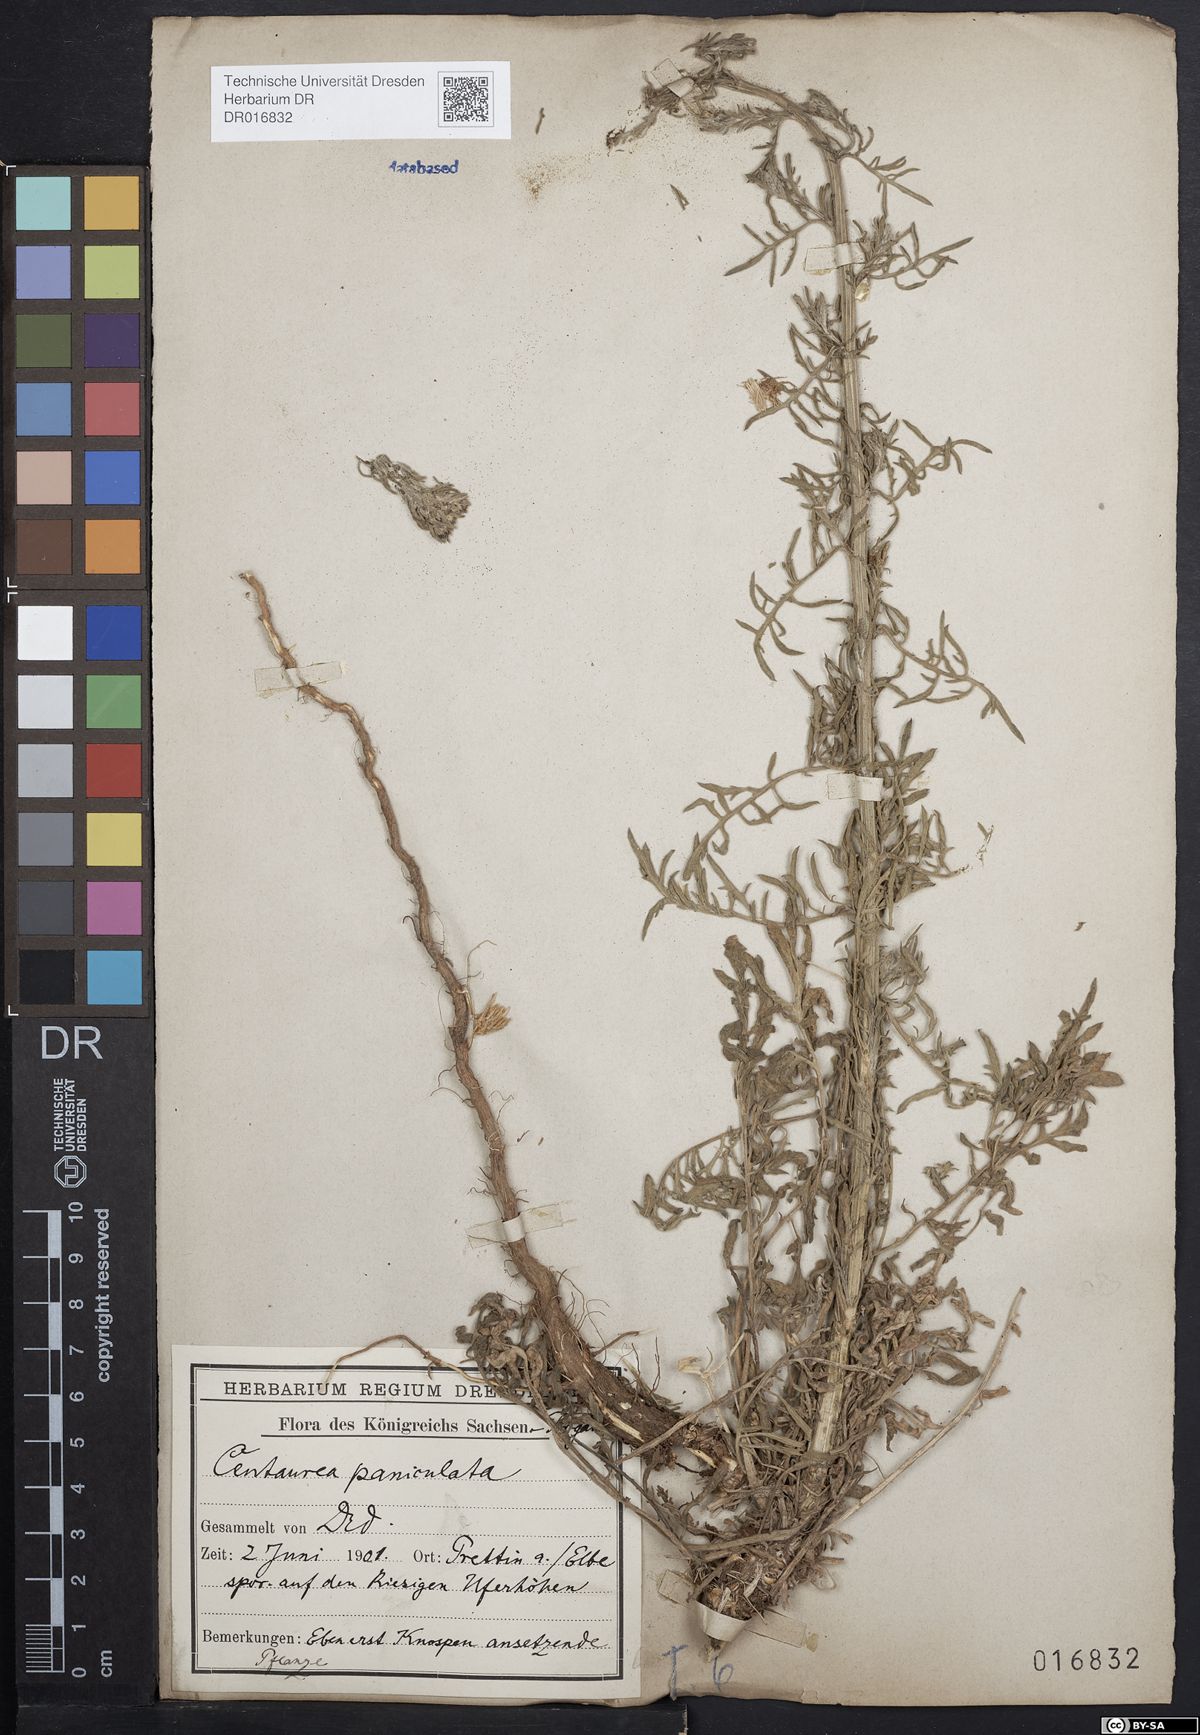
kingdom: Plantae
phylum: Tracheophyta
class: Magnoliopsida
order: Asterales
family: Asteraceae
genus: Centaurea
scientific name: Centaurea stoebe
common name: Spotted knapweed
